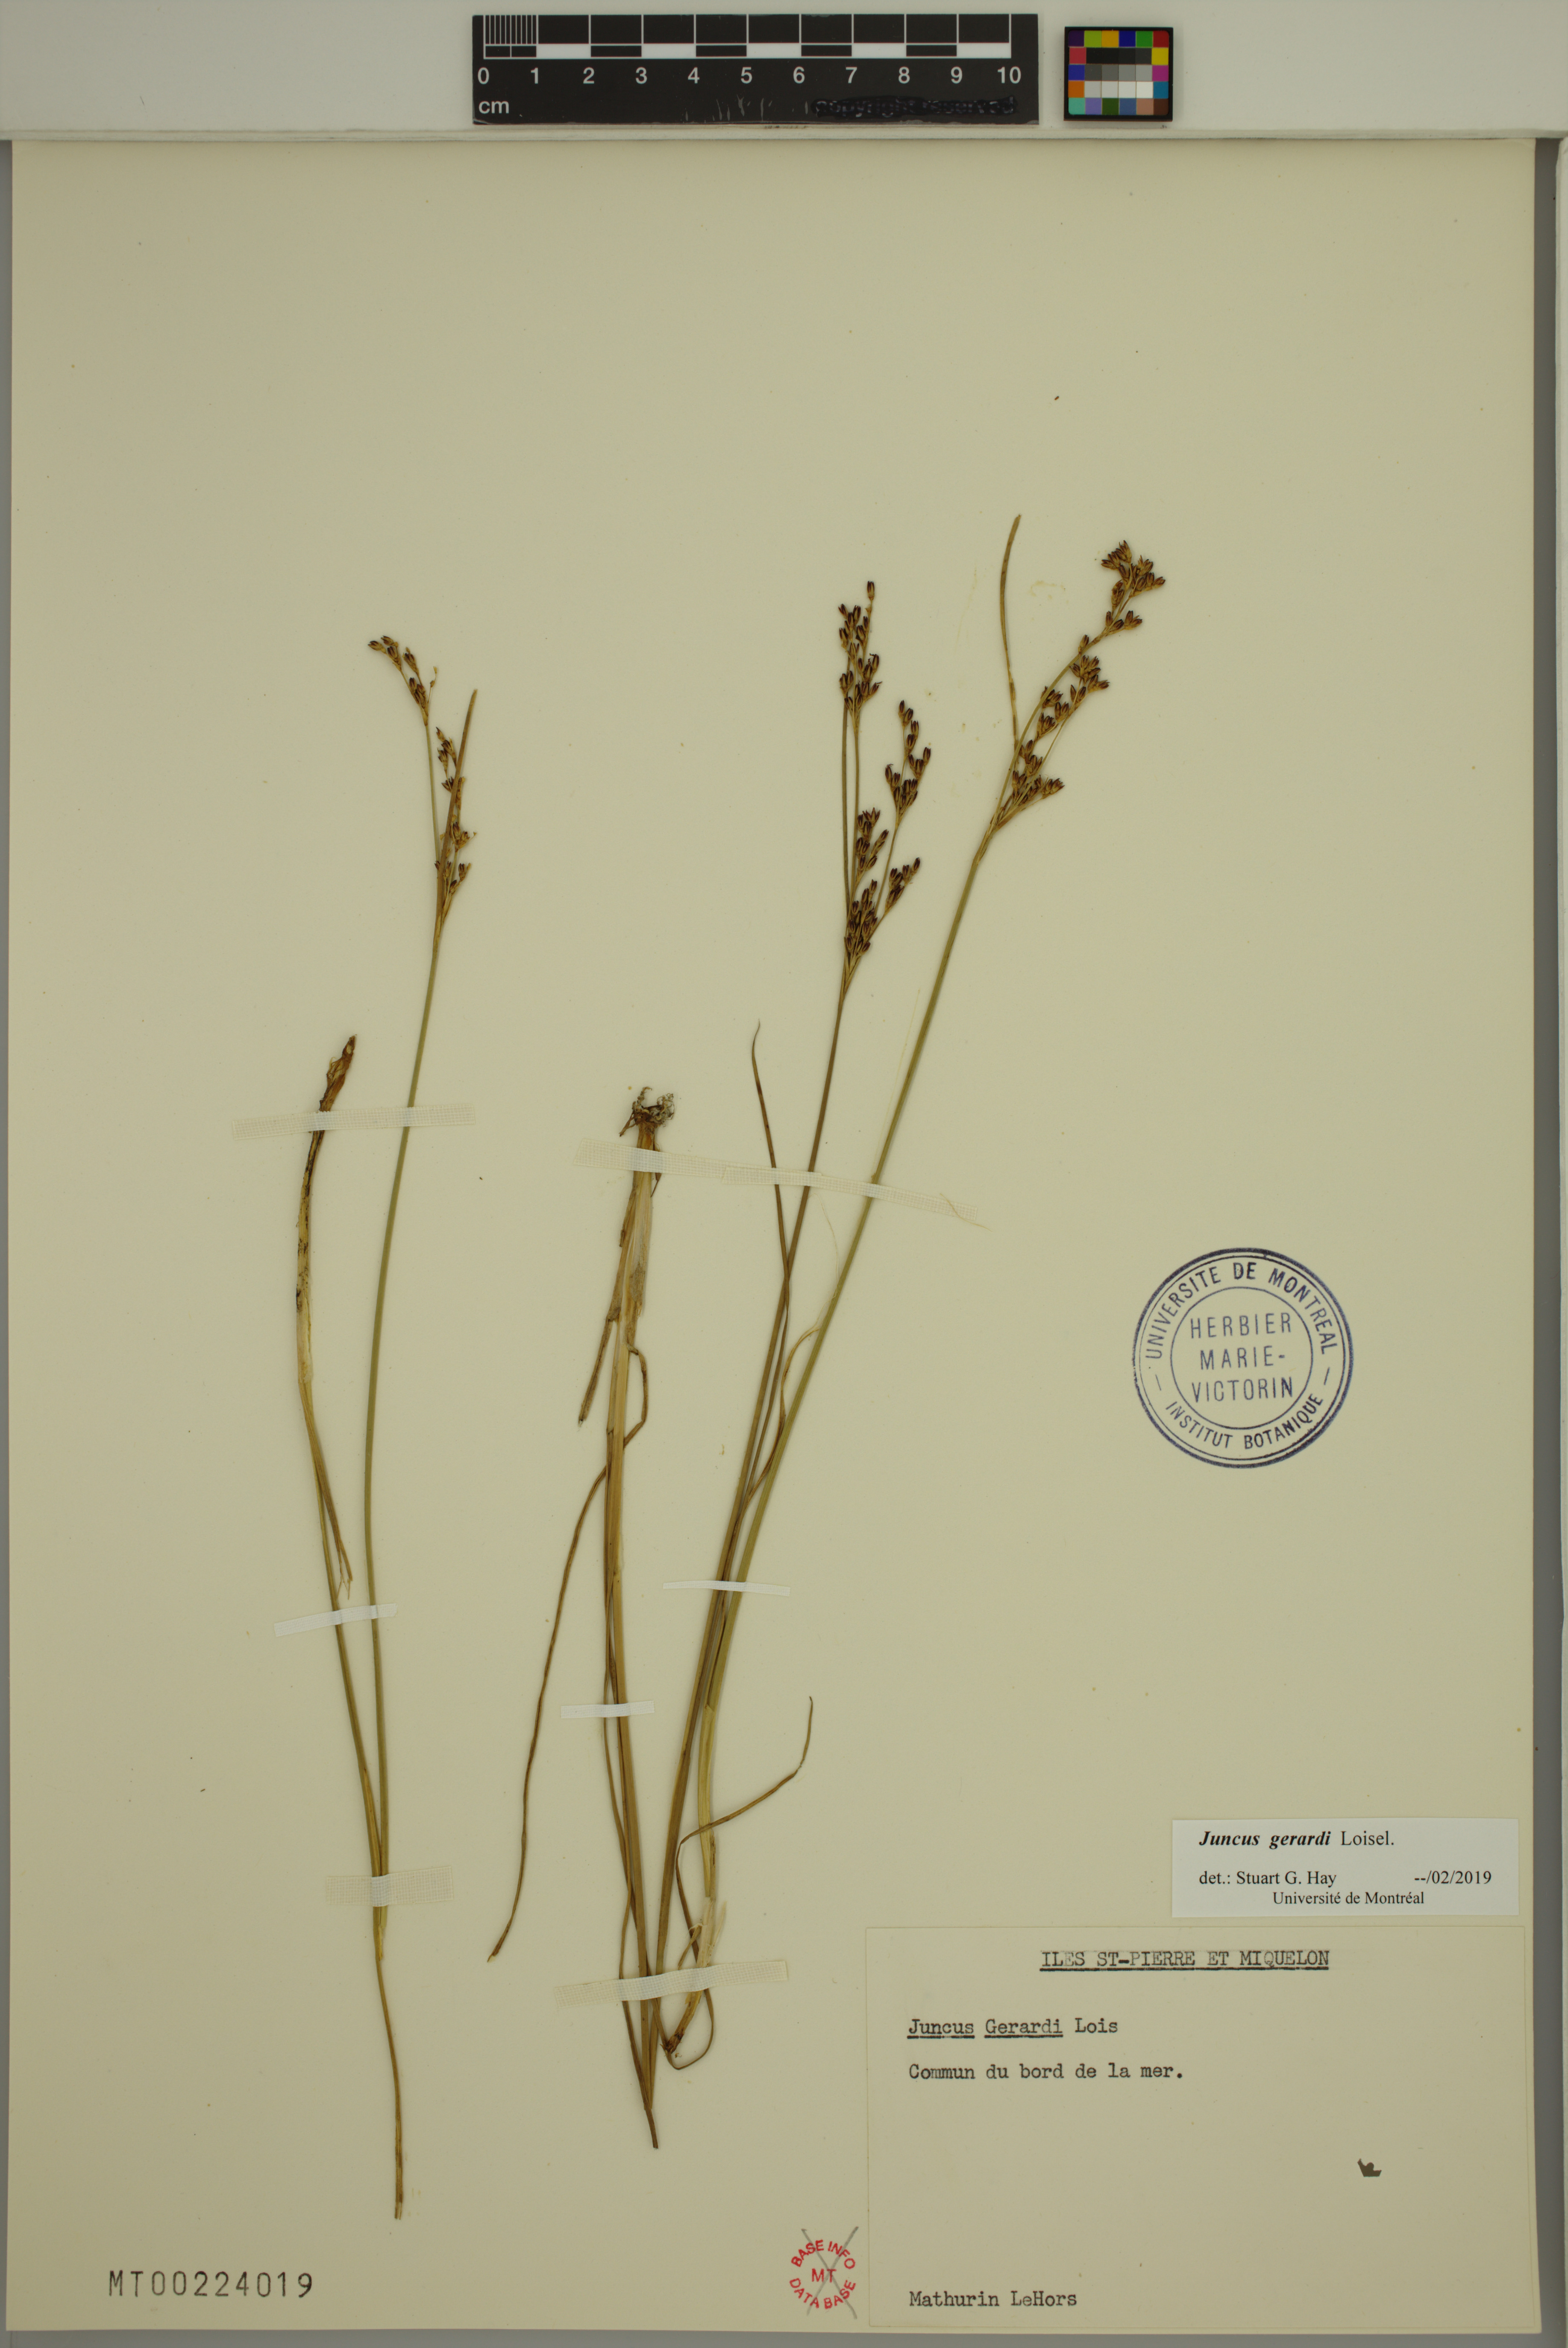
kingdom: Plantae
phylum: Tracheophyta
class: Liliopsida
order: Poales
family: Juncaceae
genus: Juncus
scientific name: Juncus gerardi
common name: Saltmarsh rush
